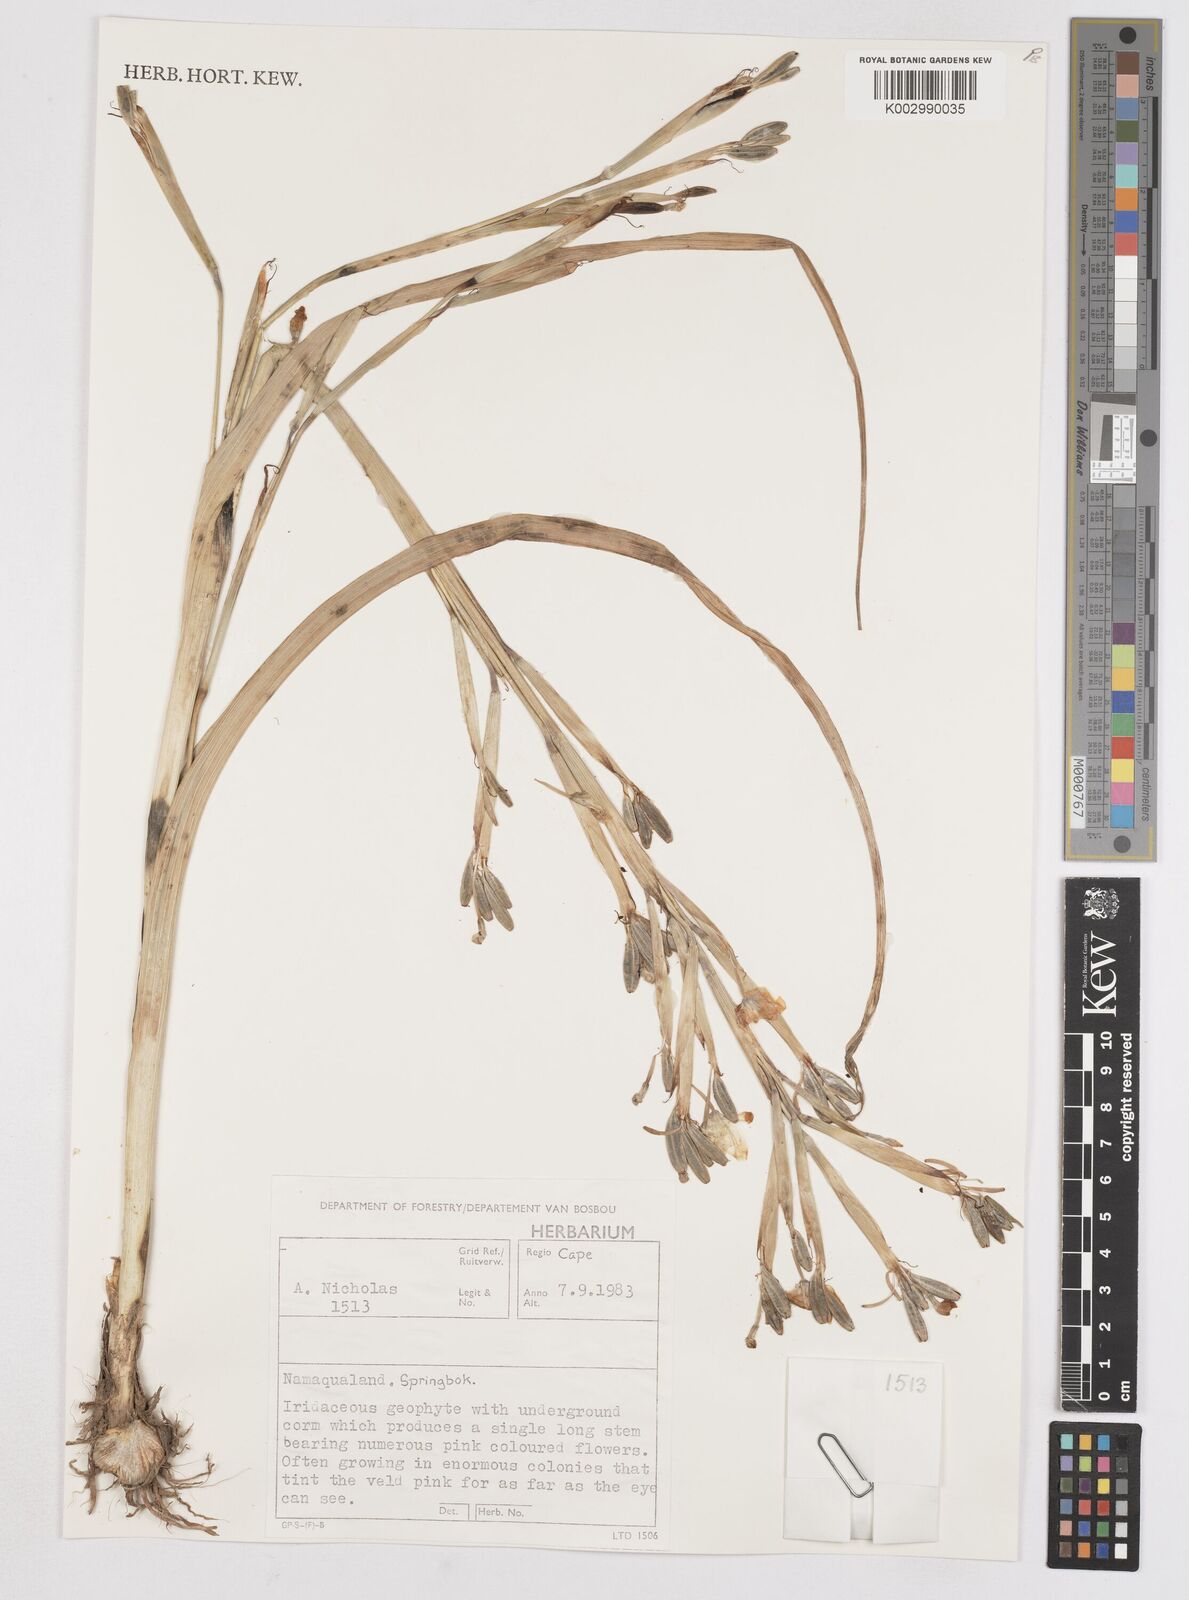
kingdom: Plantae
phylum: Tracheophyta
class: Liliopsida
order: Asparagales
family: Iridaceae
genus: Moraea
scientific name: Moraea pallida
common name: Yellow tulp
